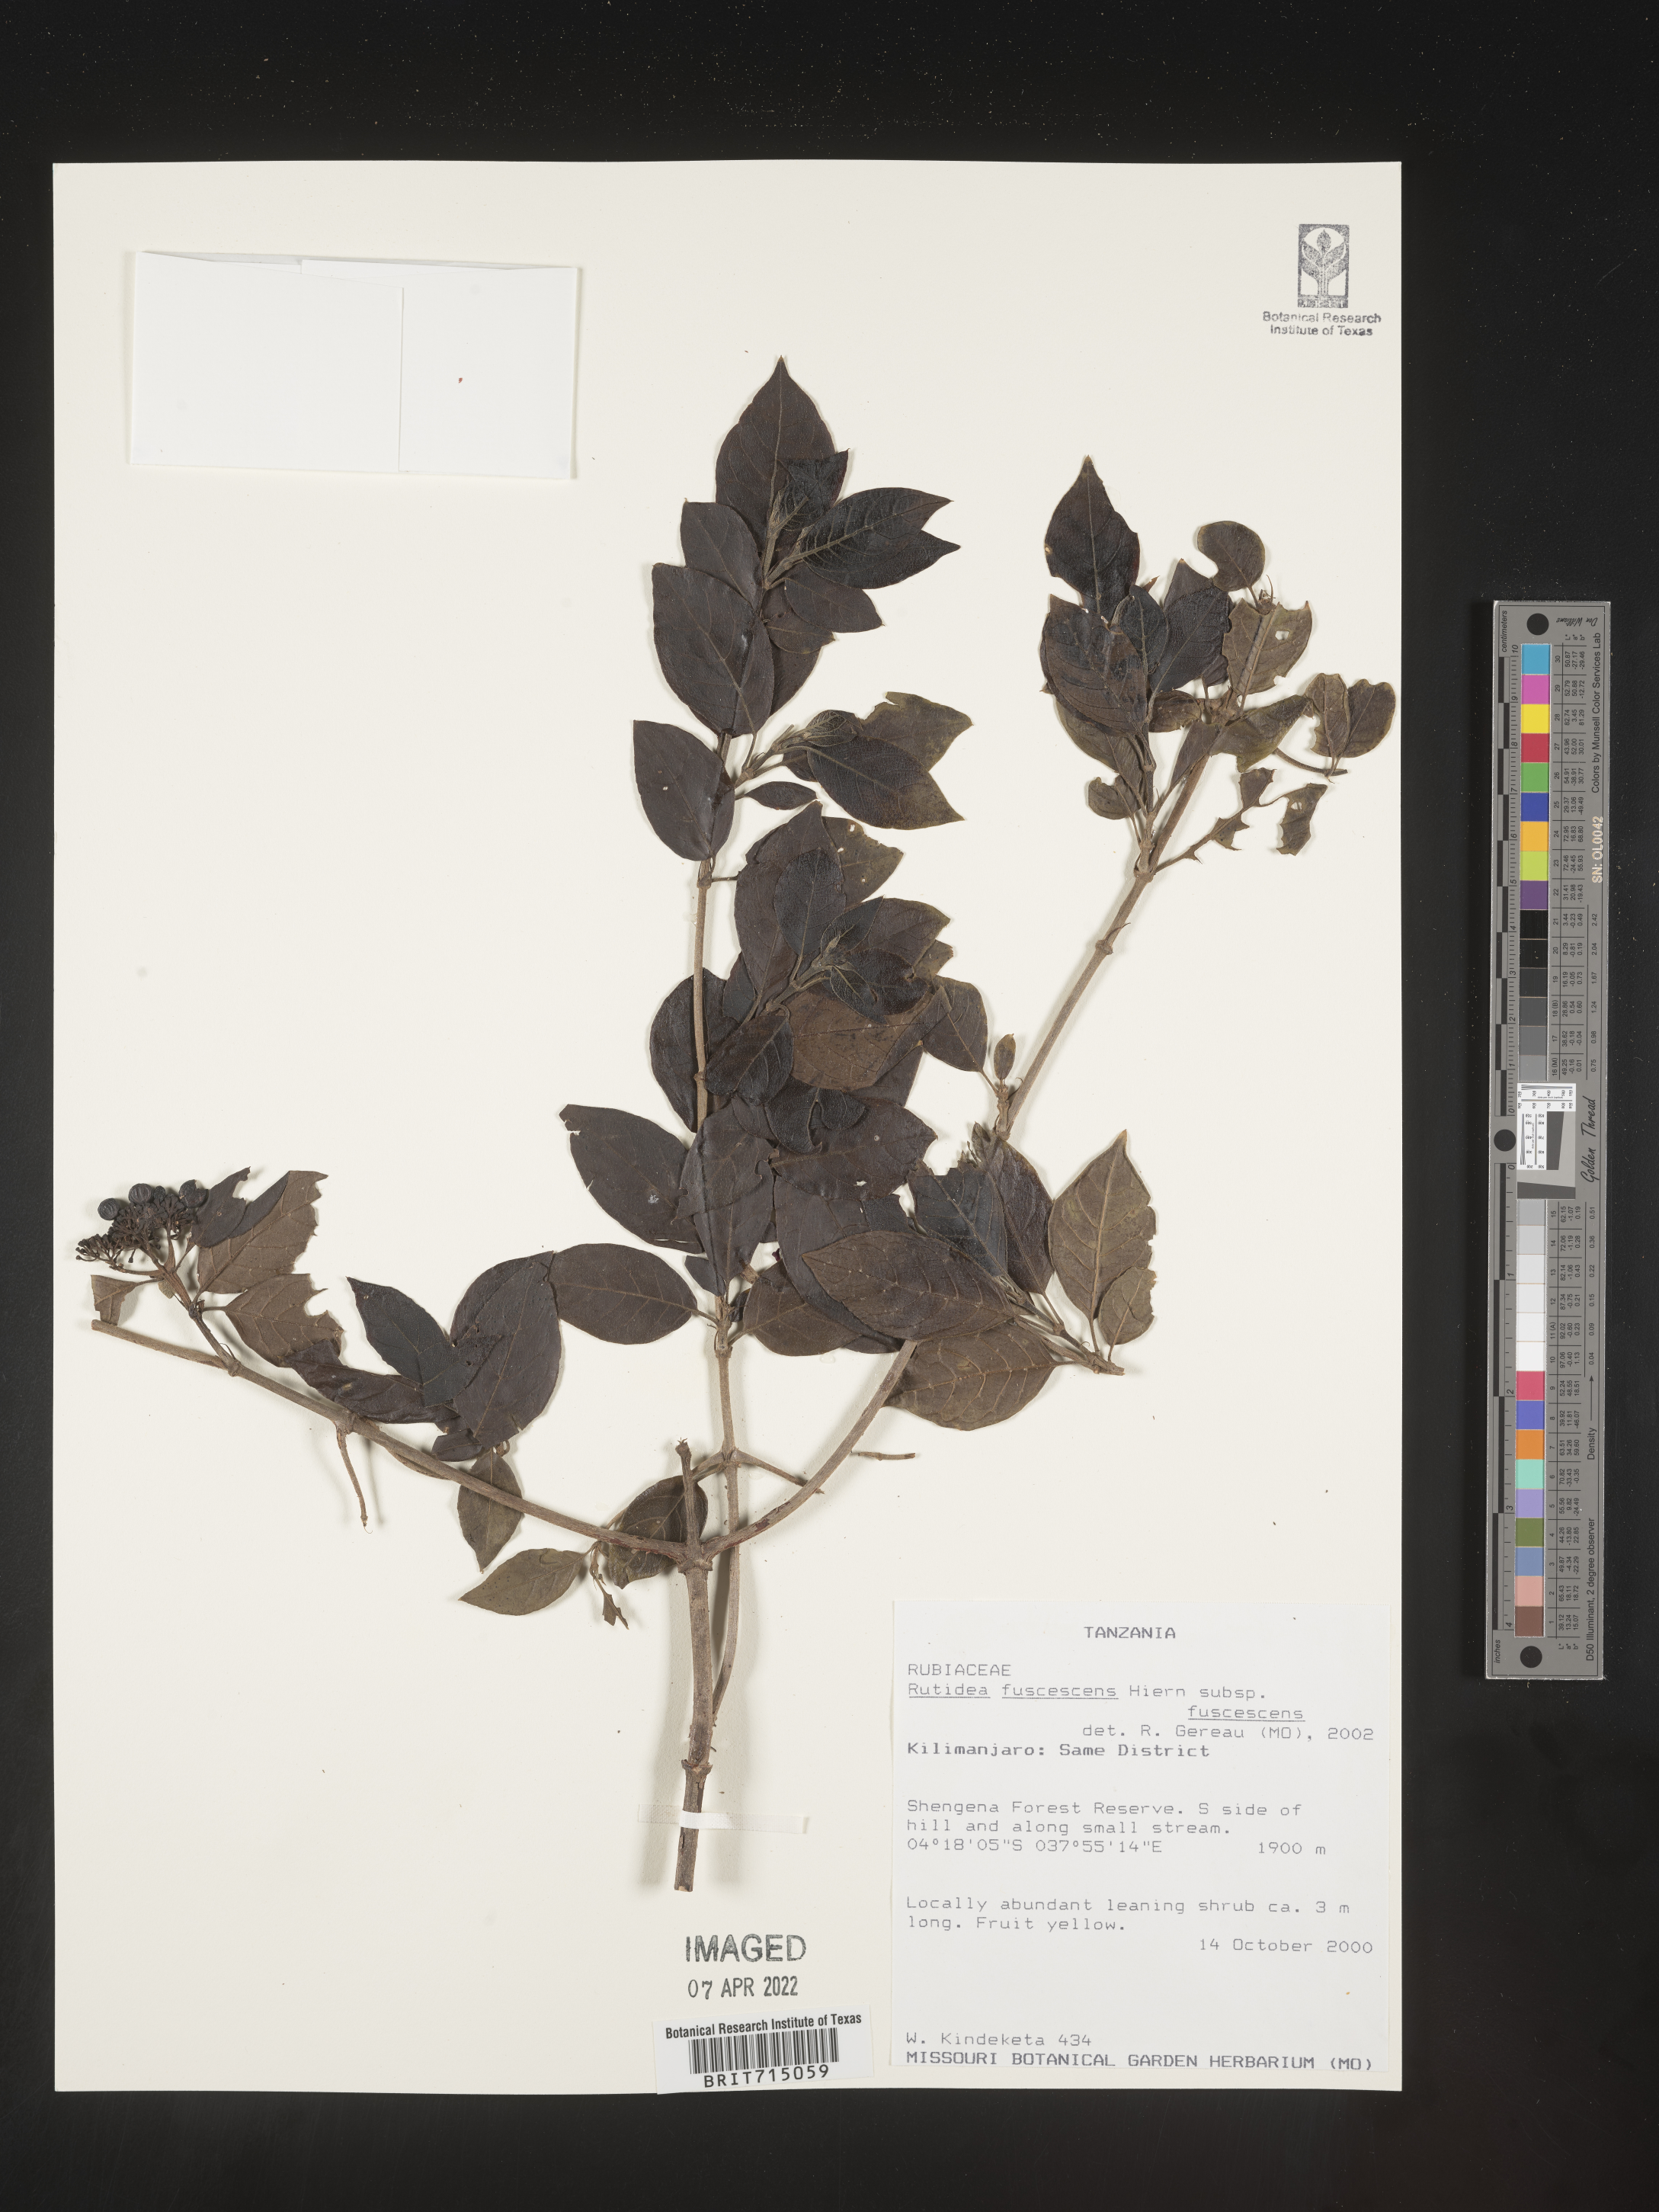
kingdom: Plantae
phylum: Tracheophyta
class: Magnoliopsida
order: Gentianales
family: Rubiaceae
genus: Rutidea
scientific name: Rutidea
